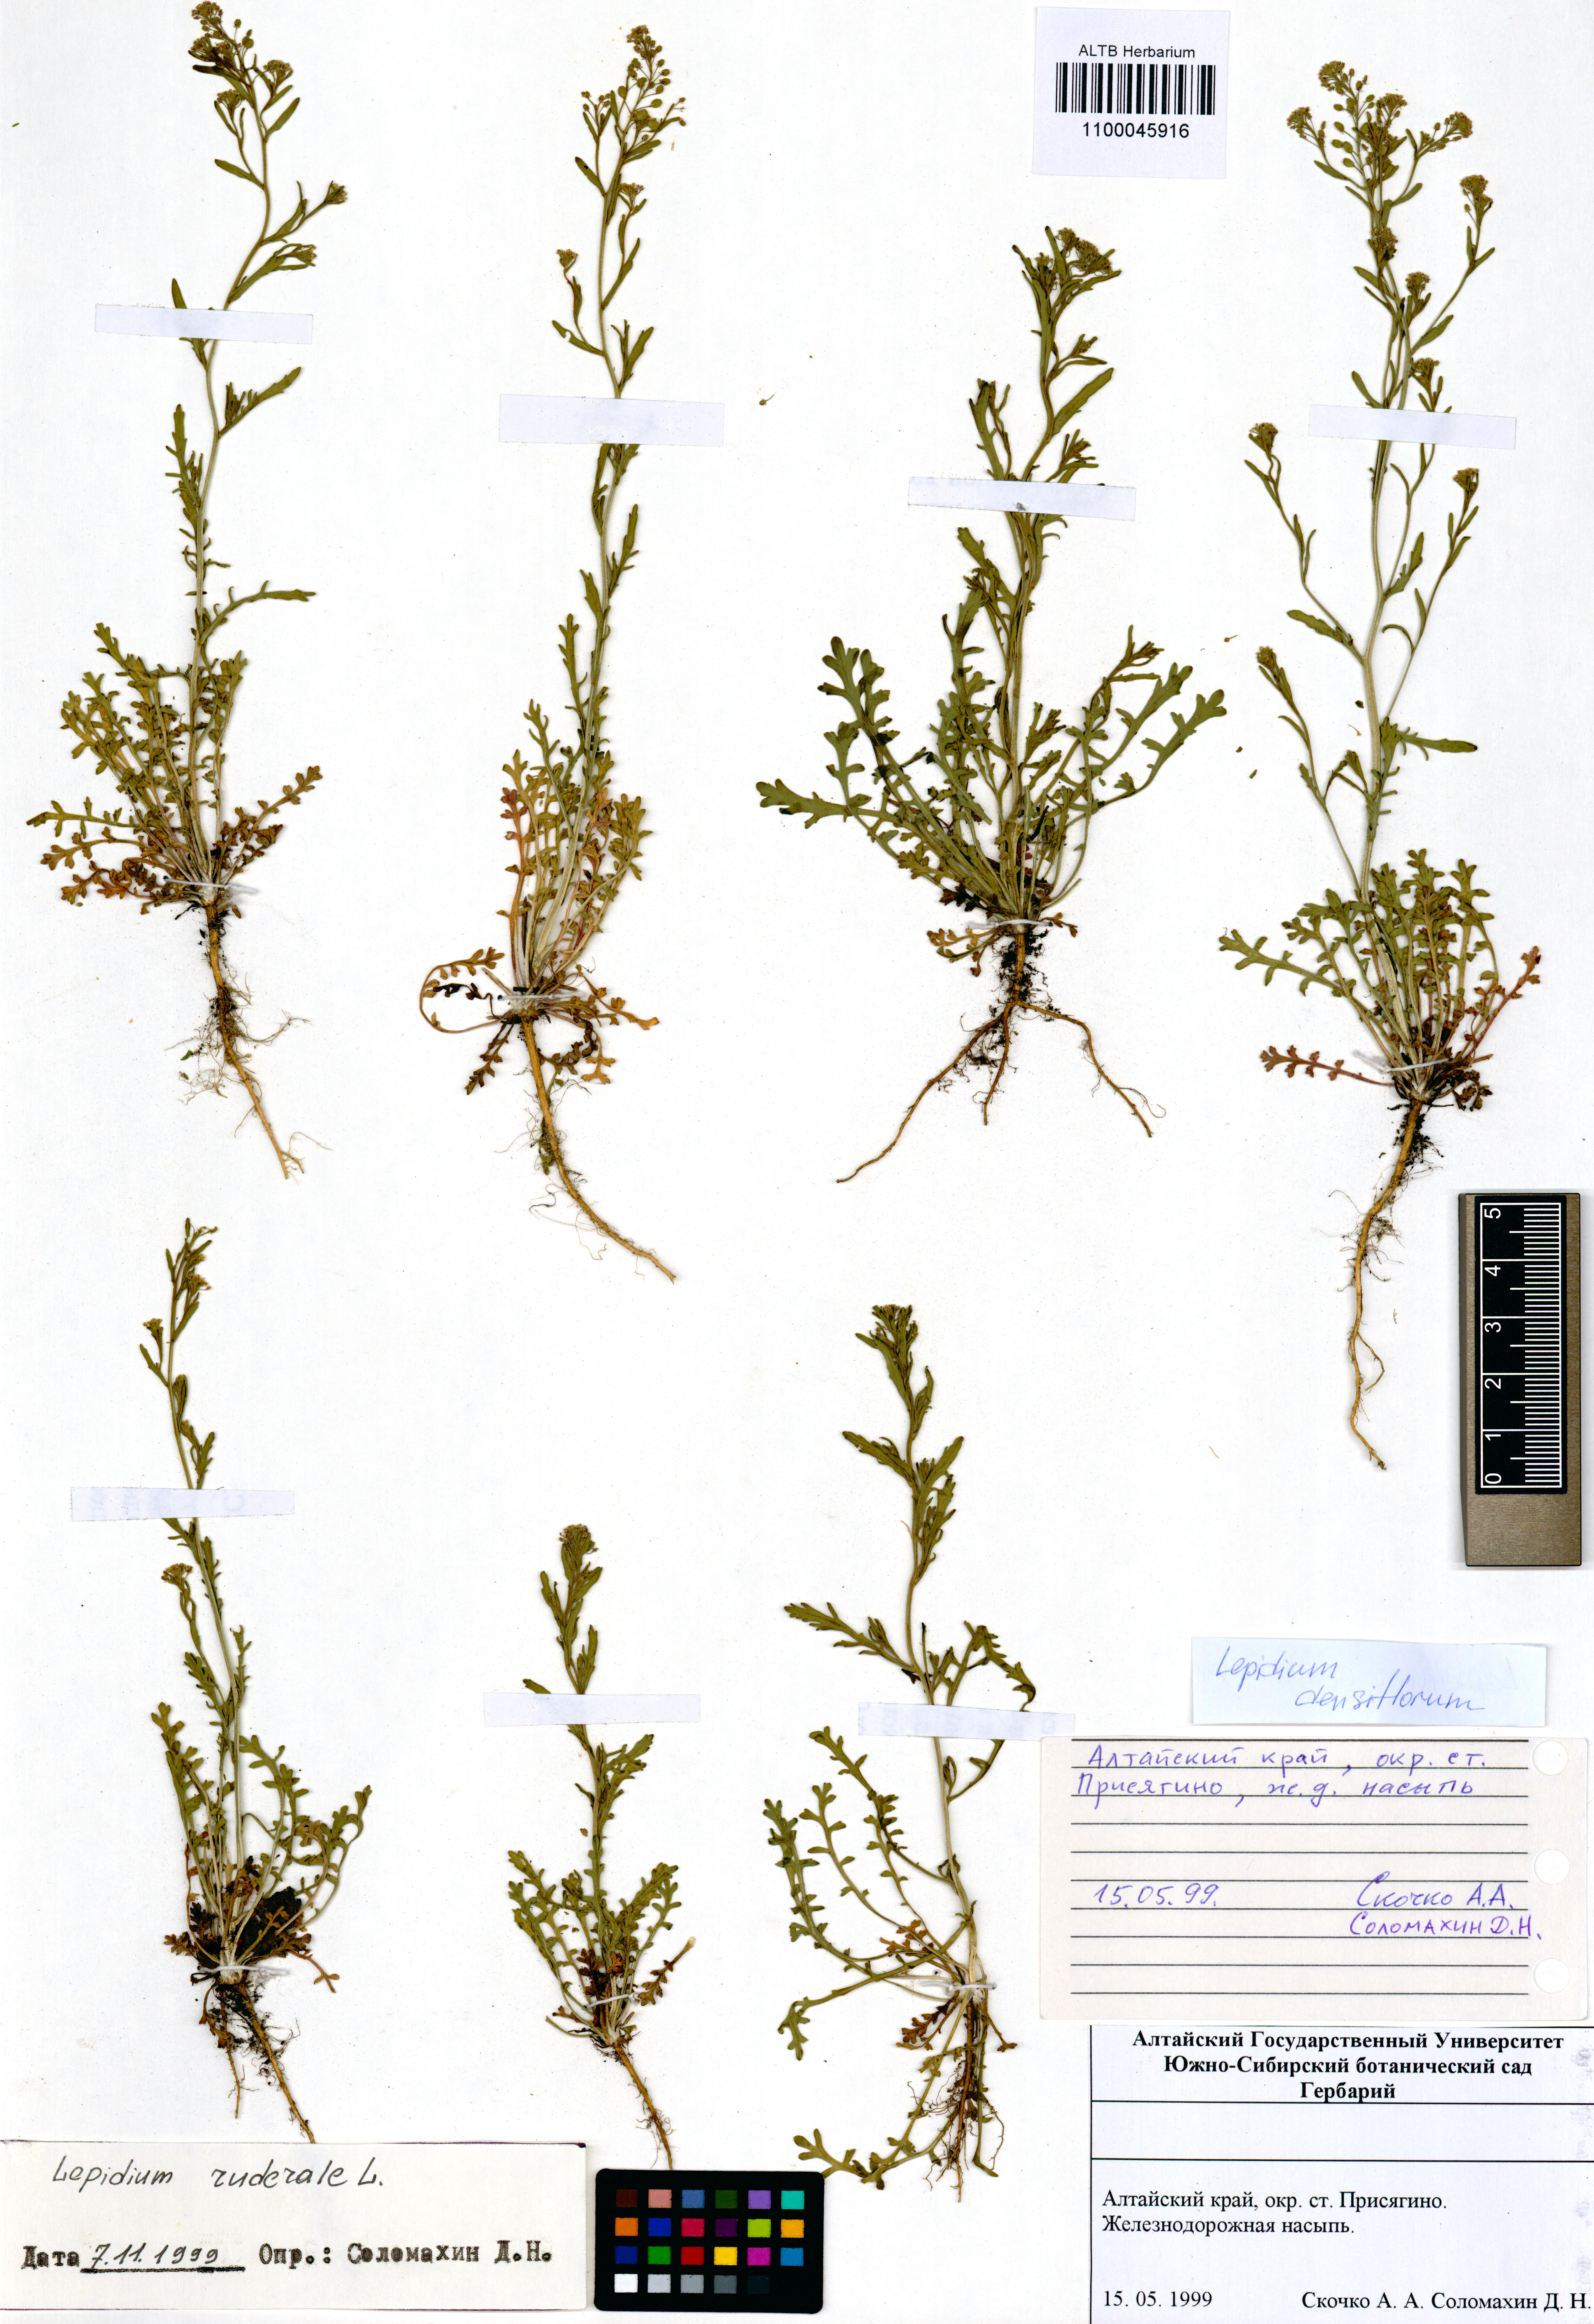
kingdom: Plantae
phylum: Tracheophyta
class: Magnoliopsida
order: Brassicales
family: Brassicaceae
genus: Lepidium
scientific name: Lepidium densiflorum
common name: Miner's pepperwort
